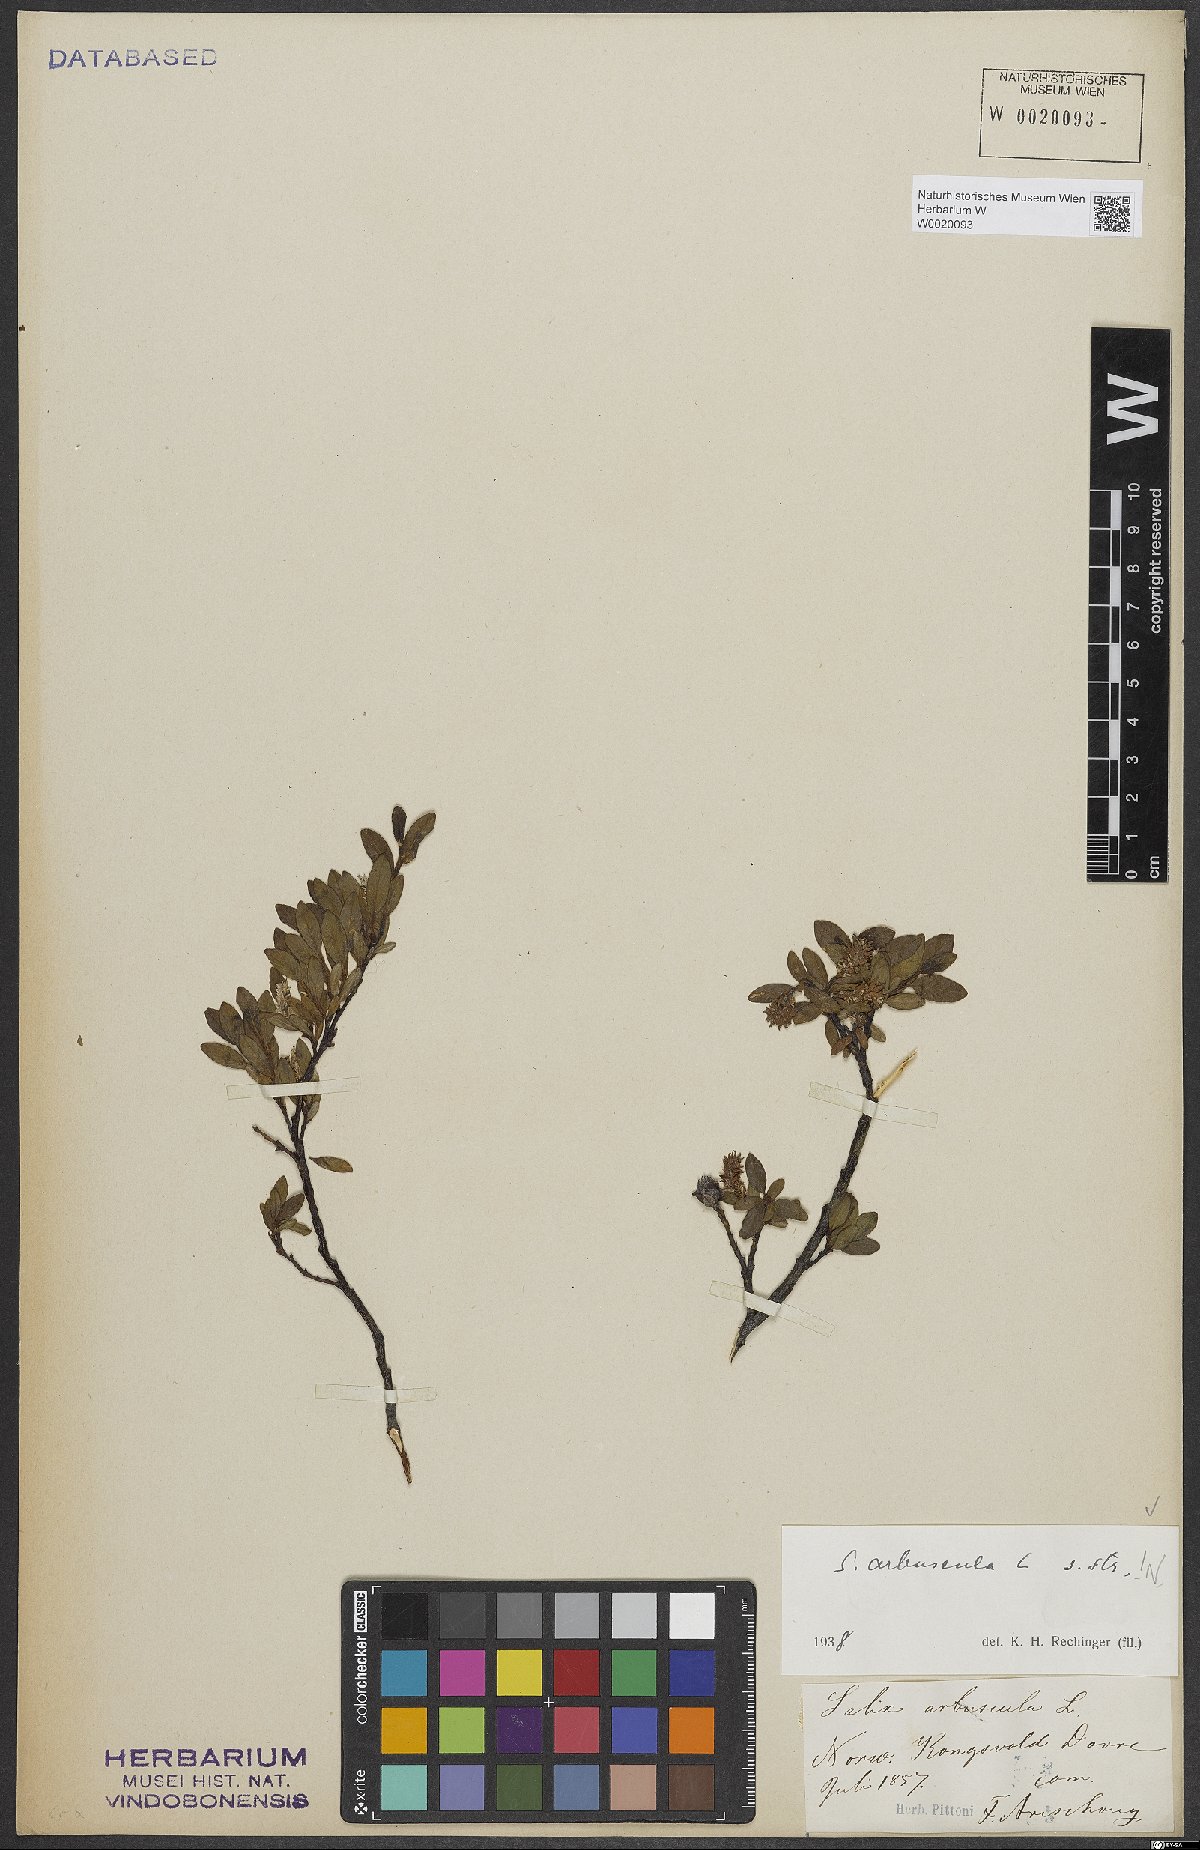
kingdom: Plantae
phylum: Tracheophyta
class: Magnoliopsida
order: Malpighiales
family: Salicaceae
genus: Salix
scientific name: Salix arbuscula
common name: Mountain willow
